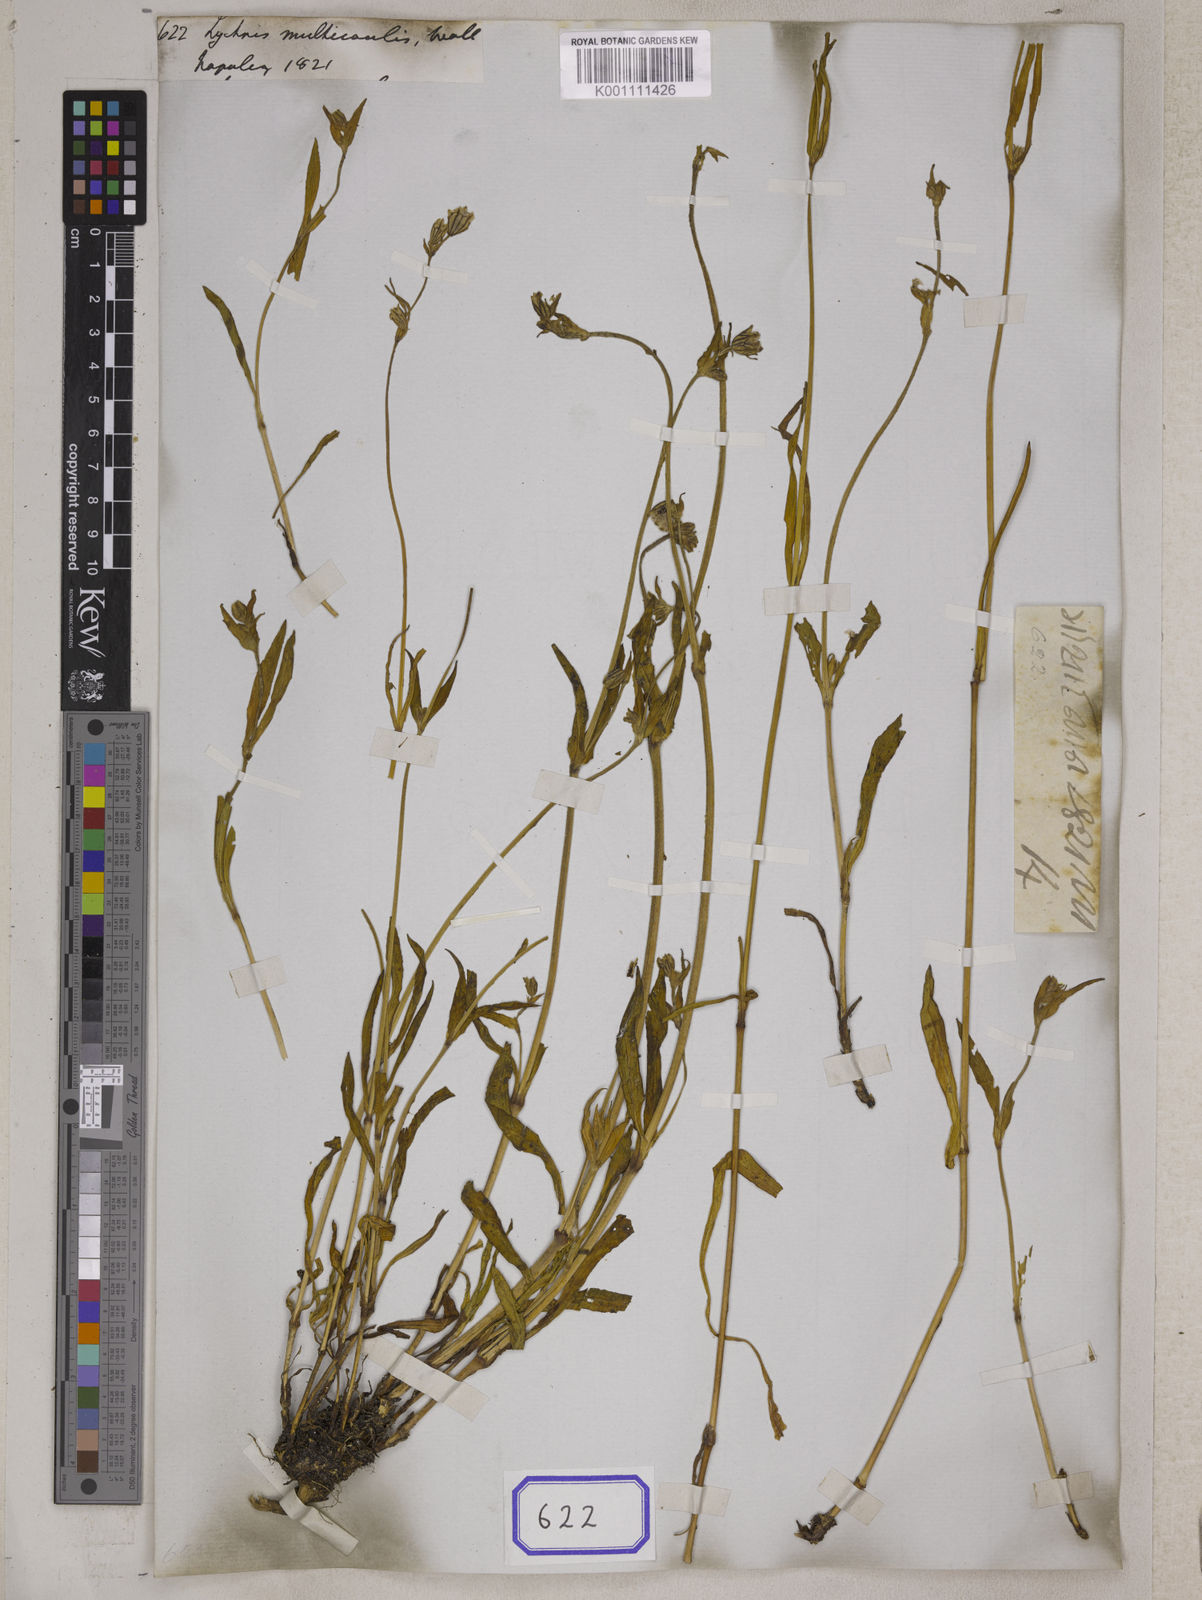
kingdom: Plantae
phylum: Tracheophyta
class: Magnoliopsida
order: Caryophyllales
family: Caryophyllaceae
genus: Silene
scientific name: Silene
